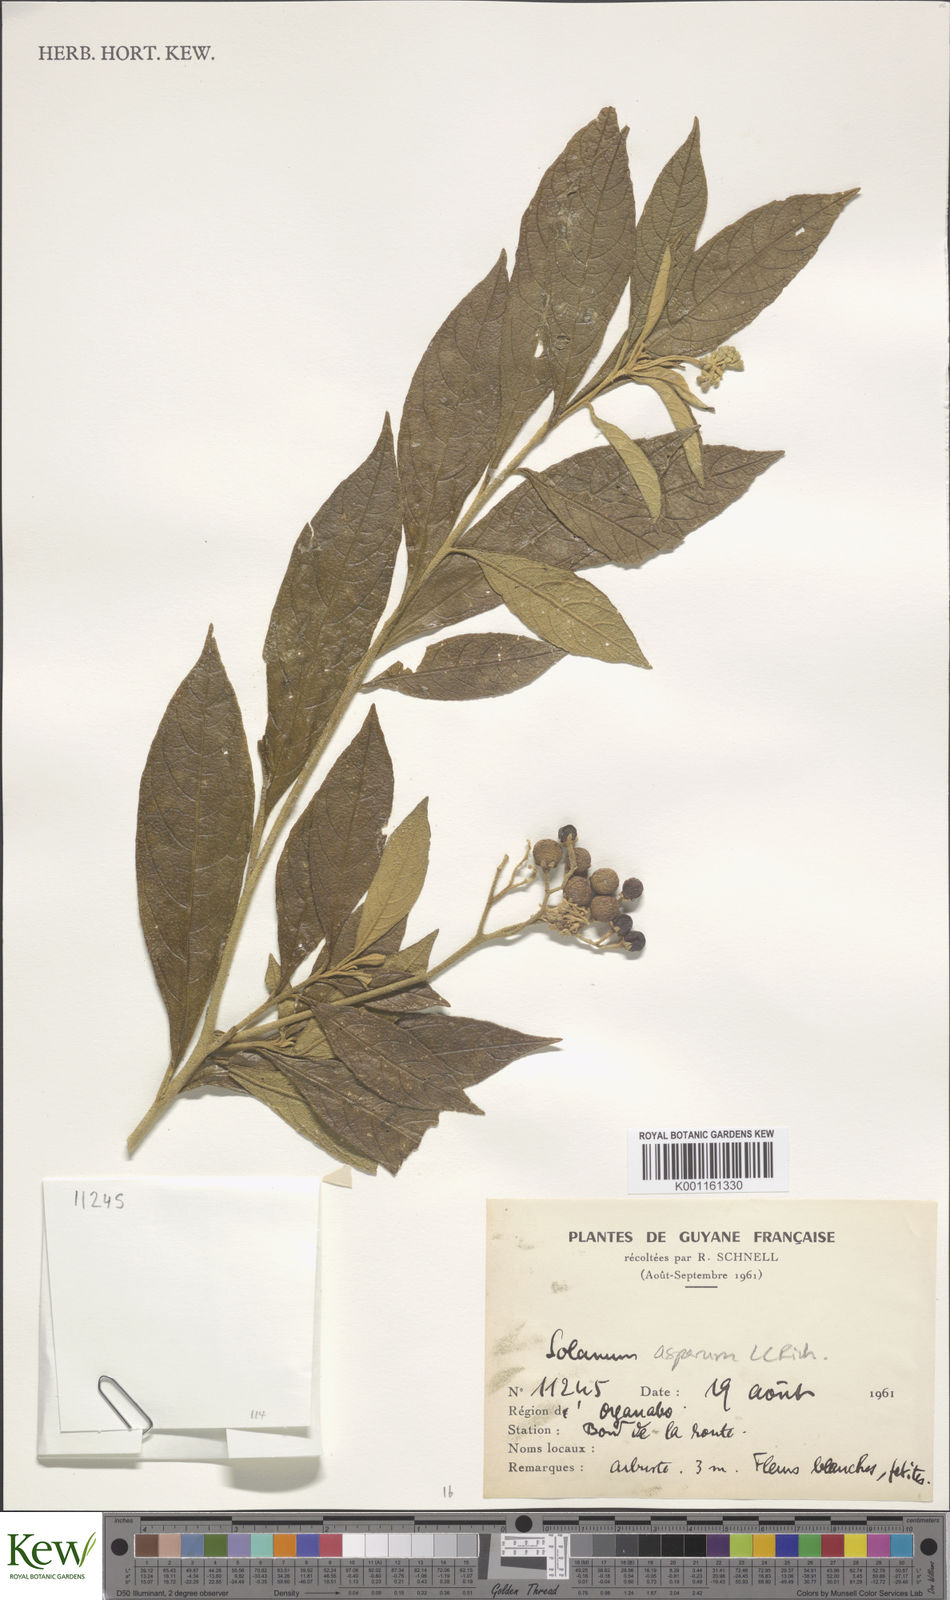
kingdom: Plantae
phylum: Tracheophyta
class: Magnoliopsida
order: Solanales
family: Solanaceae
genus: Solanum
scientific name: Solanum asperum
